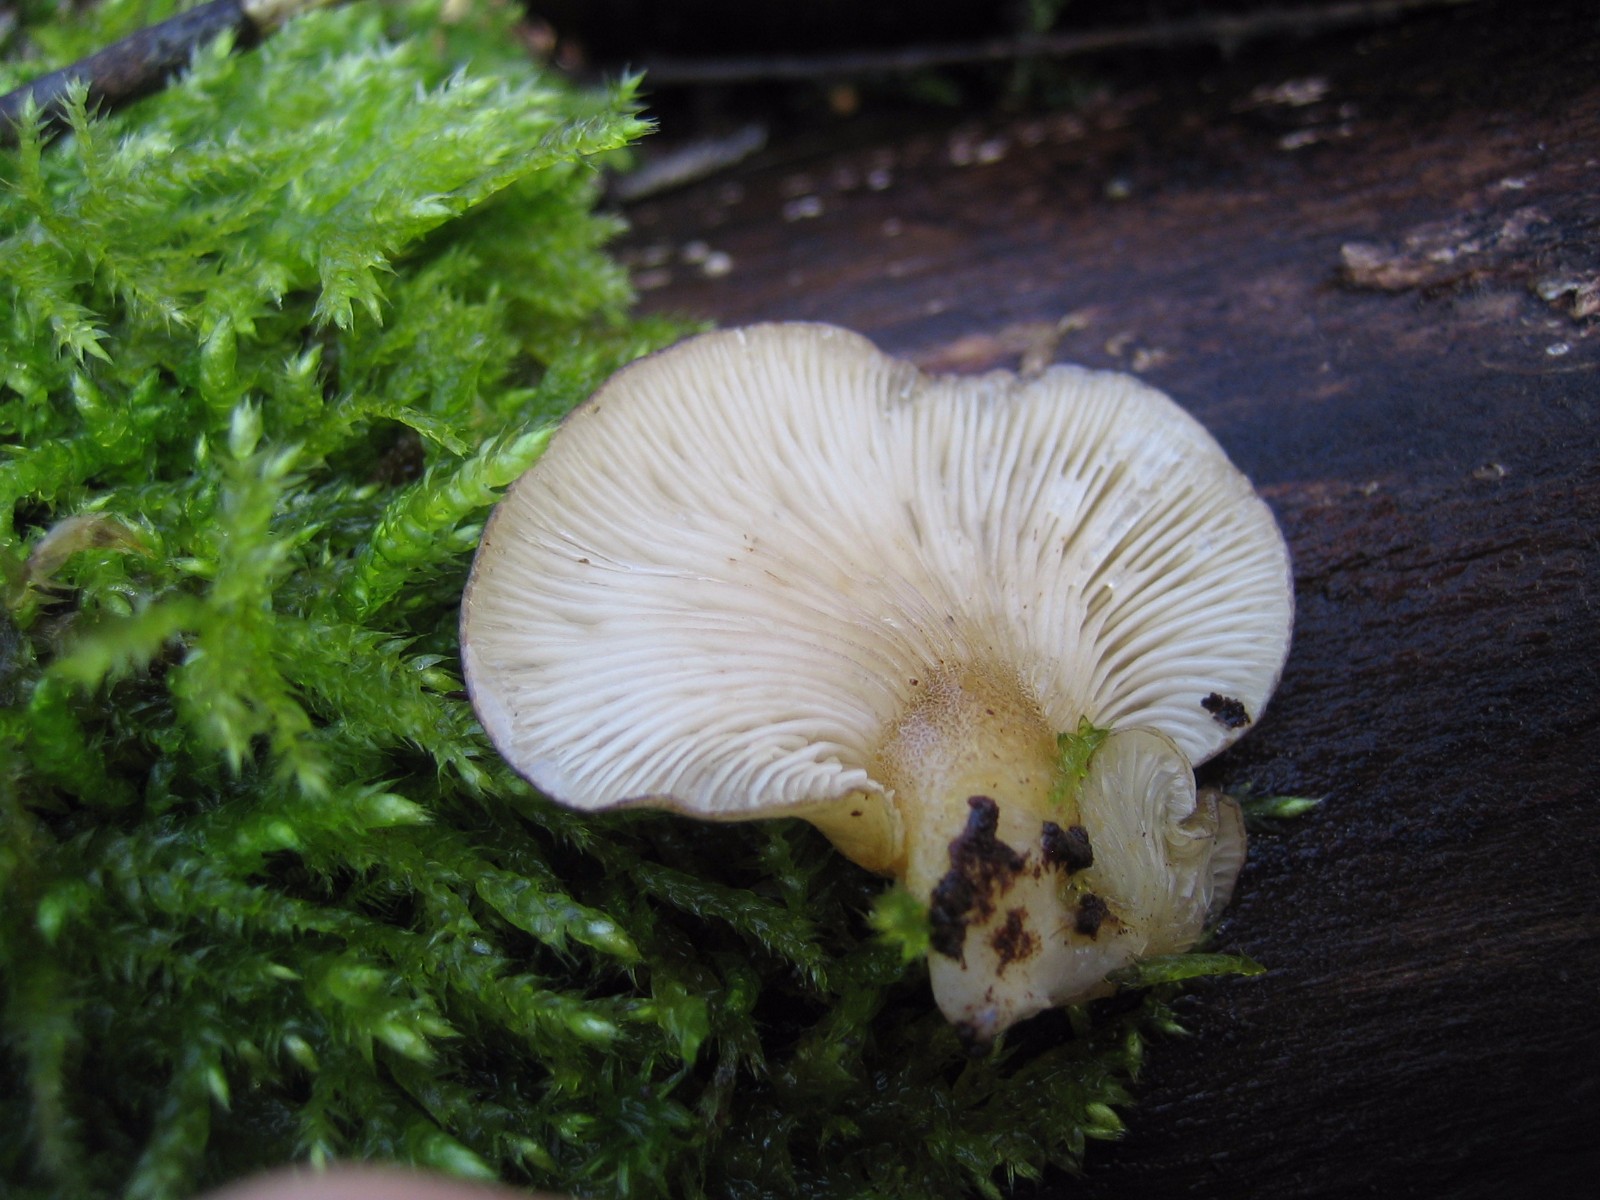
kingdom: Fungi
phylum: Basidiomycota
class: Agaricomycetes
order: Agaricales
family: Sarcomyxaceae
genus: Sarcomyxa
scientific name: Sarcomyxa serotina
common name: gummihat
